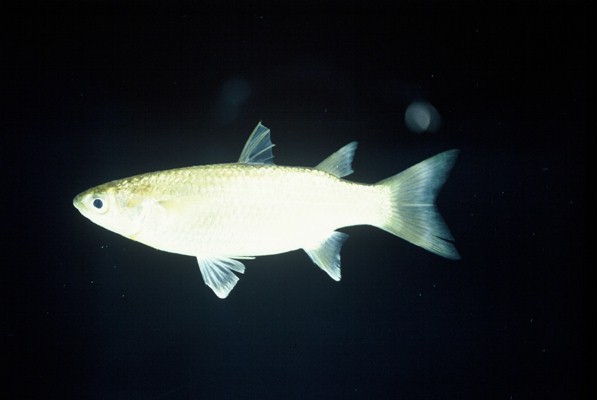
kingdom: Animalia
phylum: Chordata
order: Mugiliformes
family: Mugilidae
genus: Planiliza
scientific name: Planiliza macrolepis
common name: Largescale mullet
